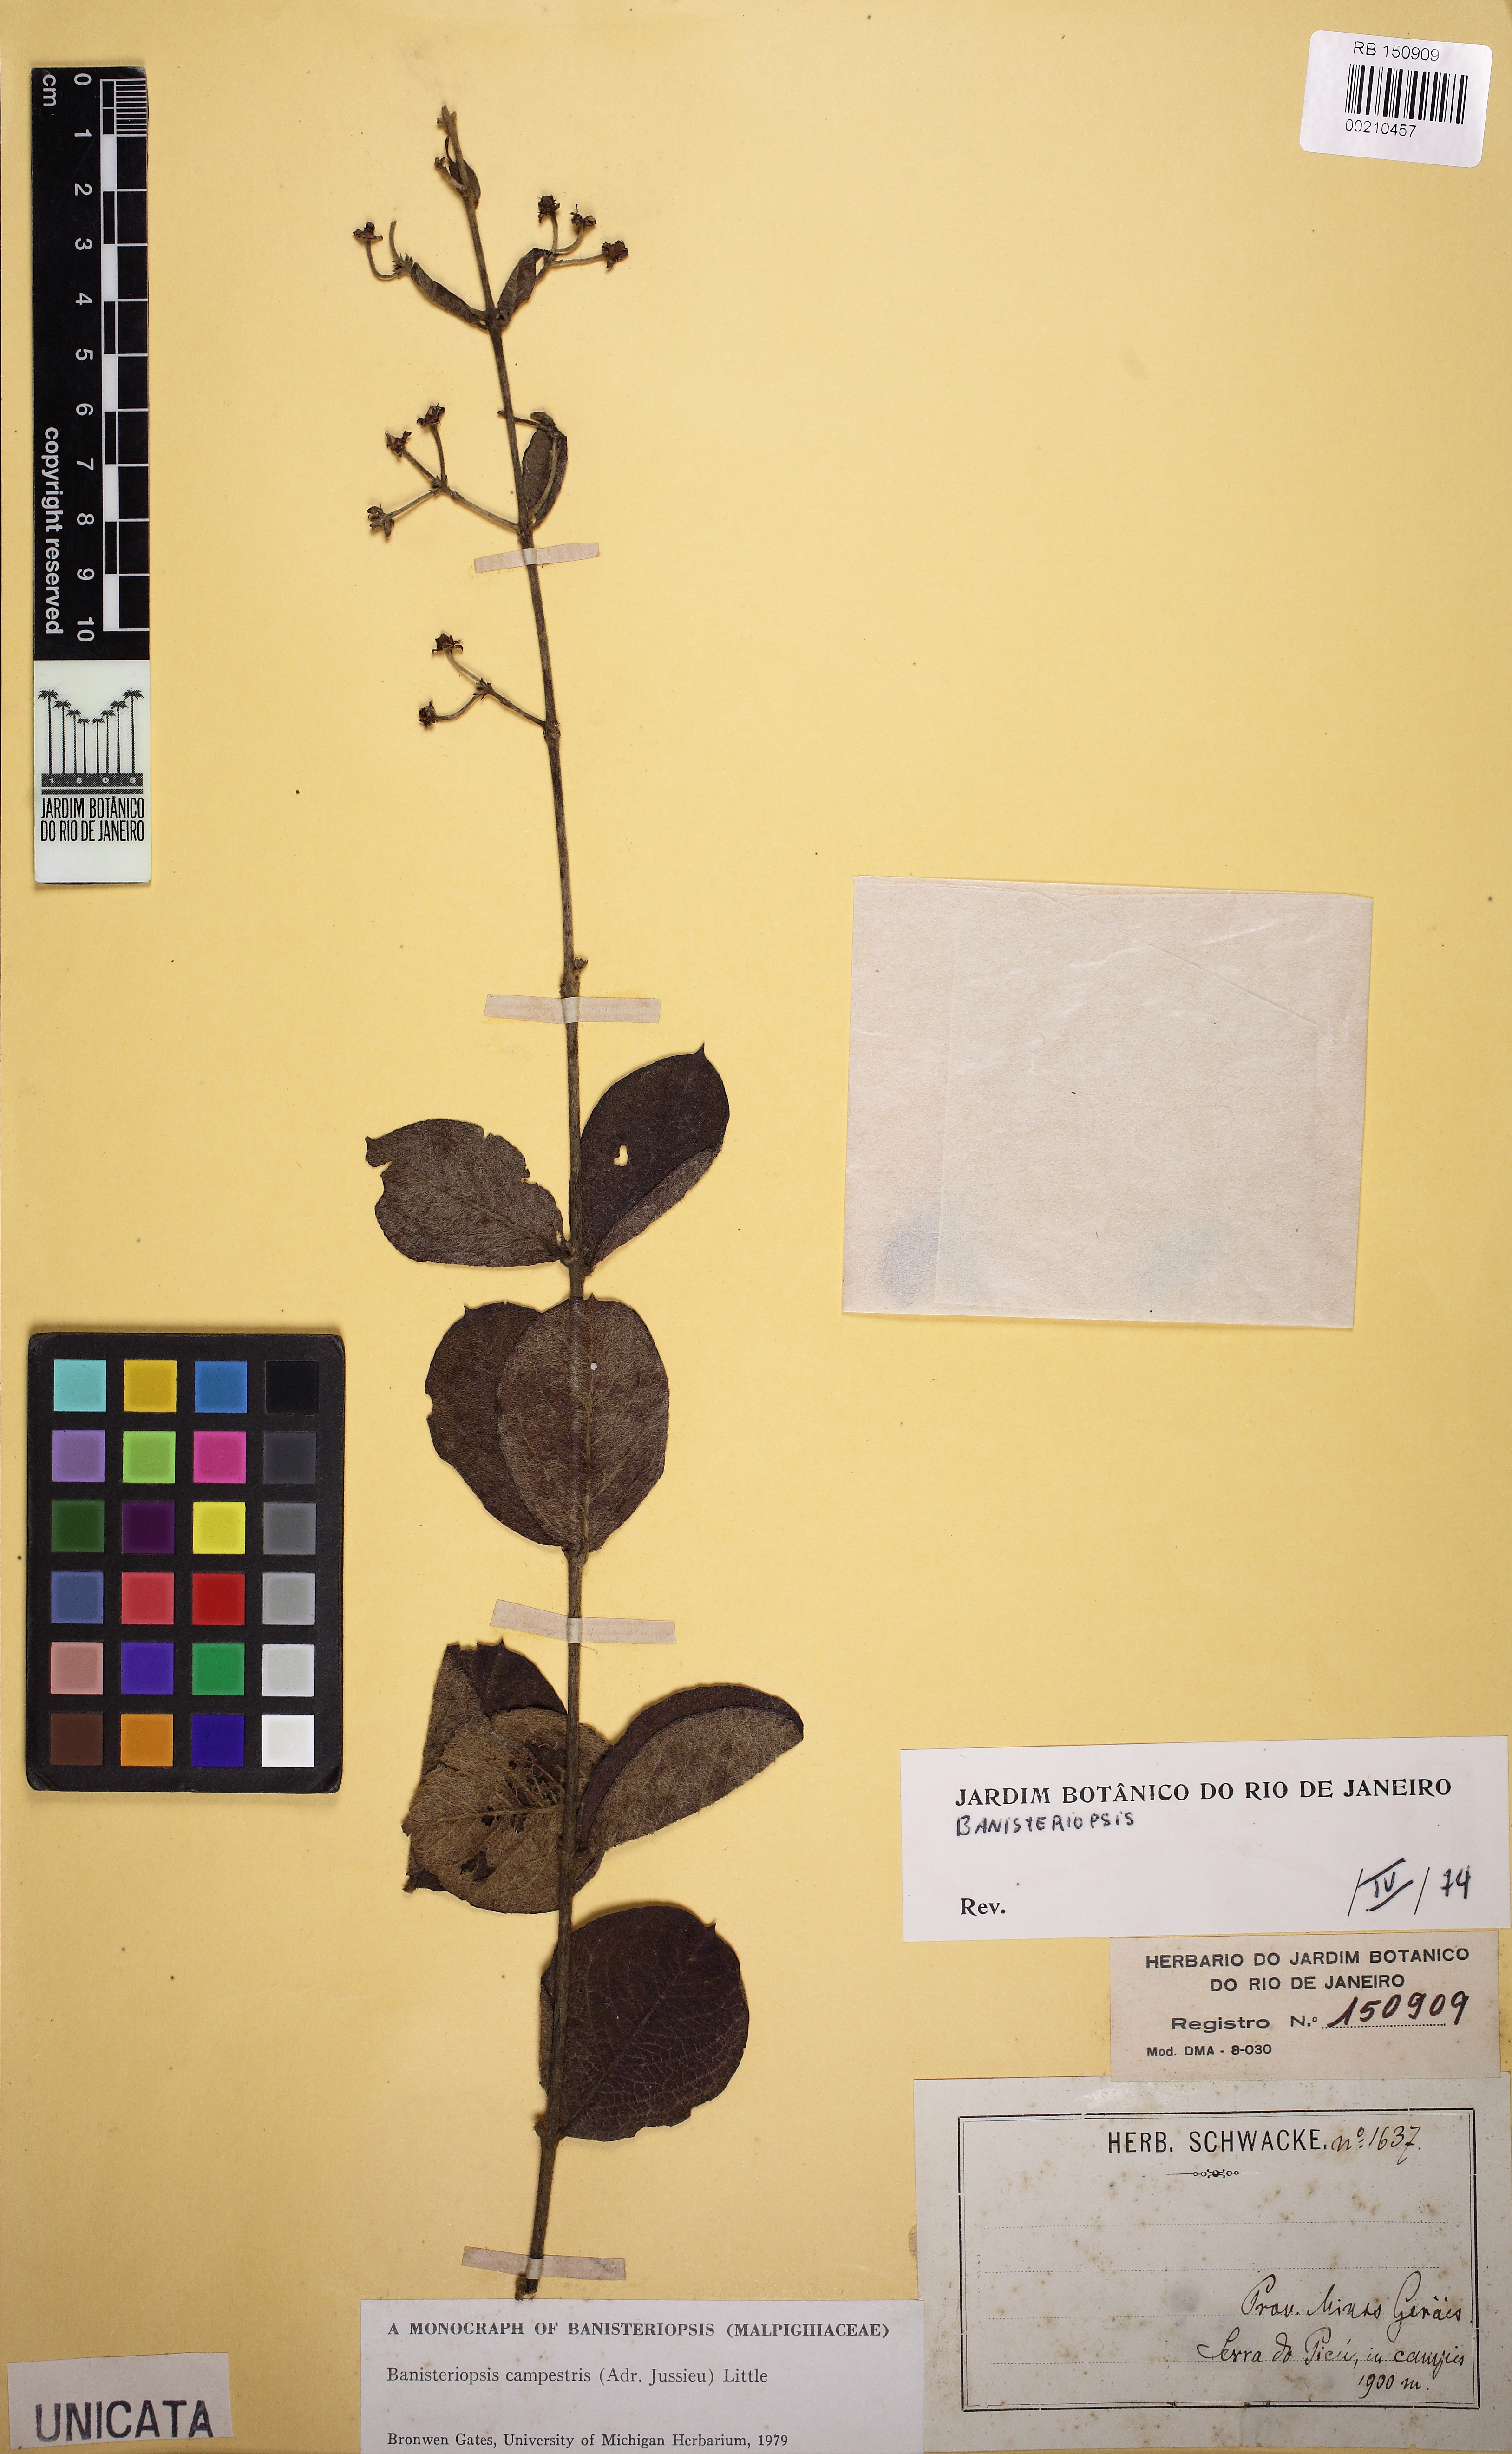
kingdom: Plantae
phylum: Tracheophyta
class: Magnoliopsida
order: Malpighiales
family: Malpighiaceae
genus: Banisteriopsis
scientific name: Banisteriopsis campestris
